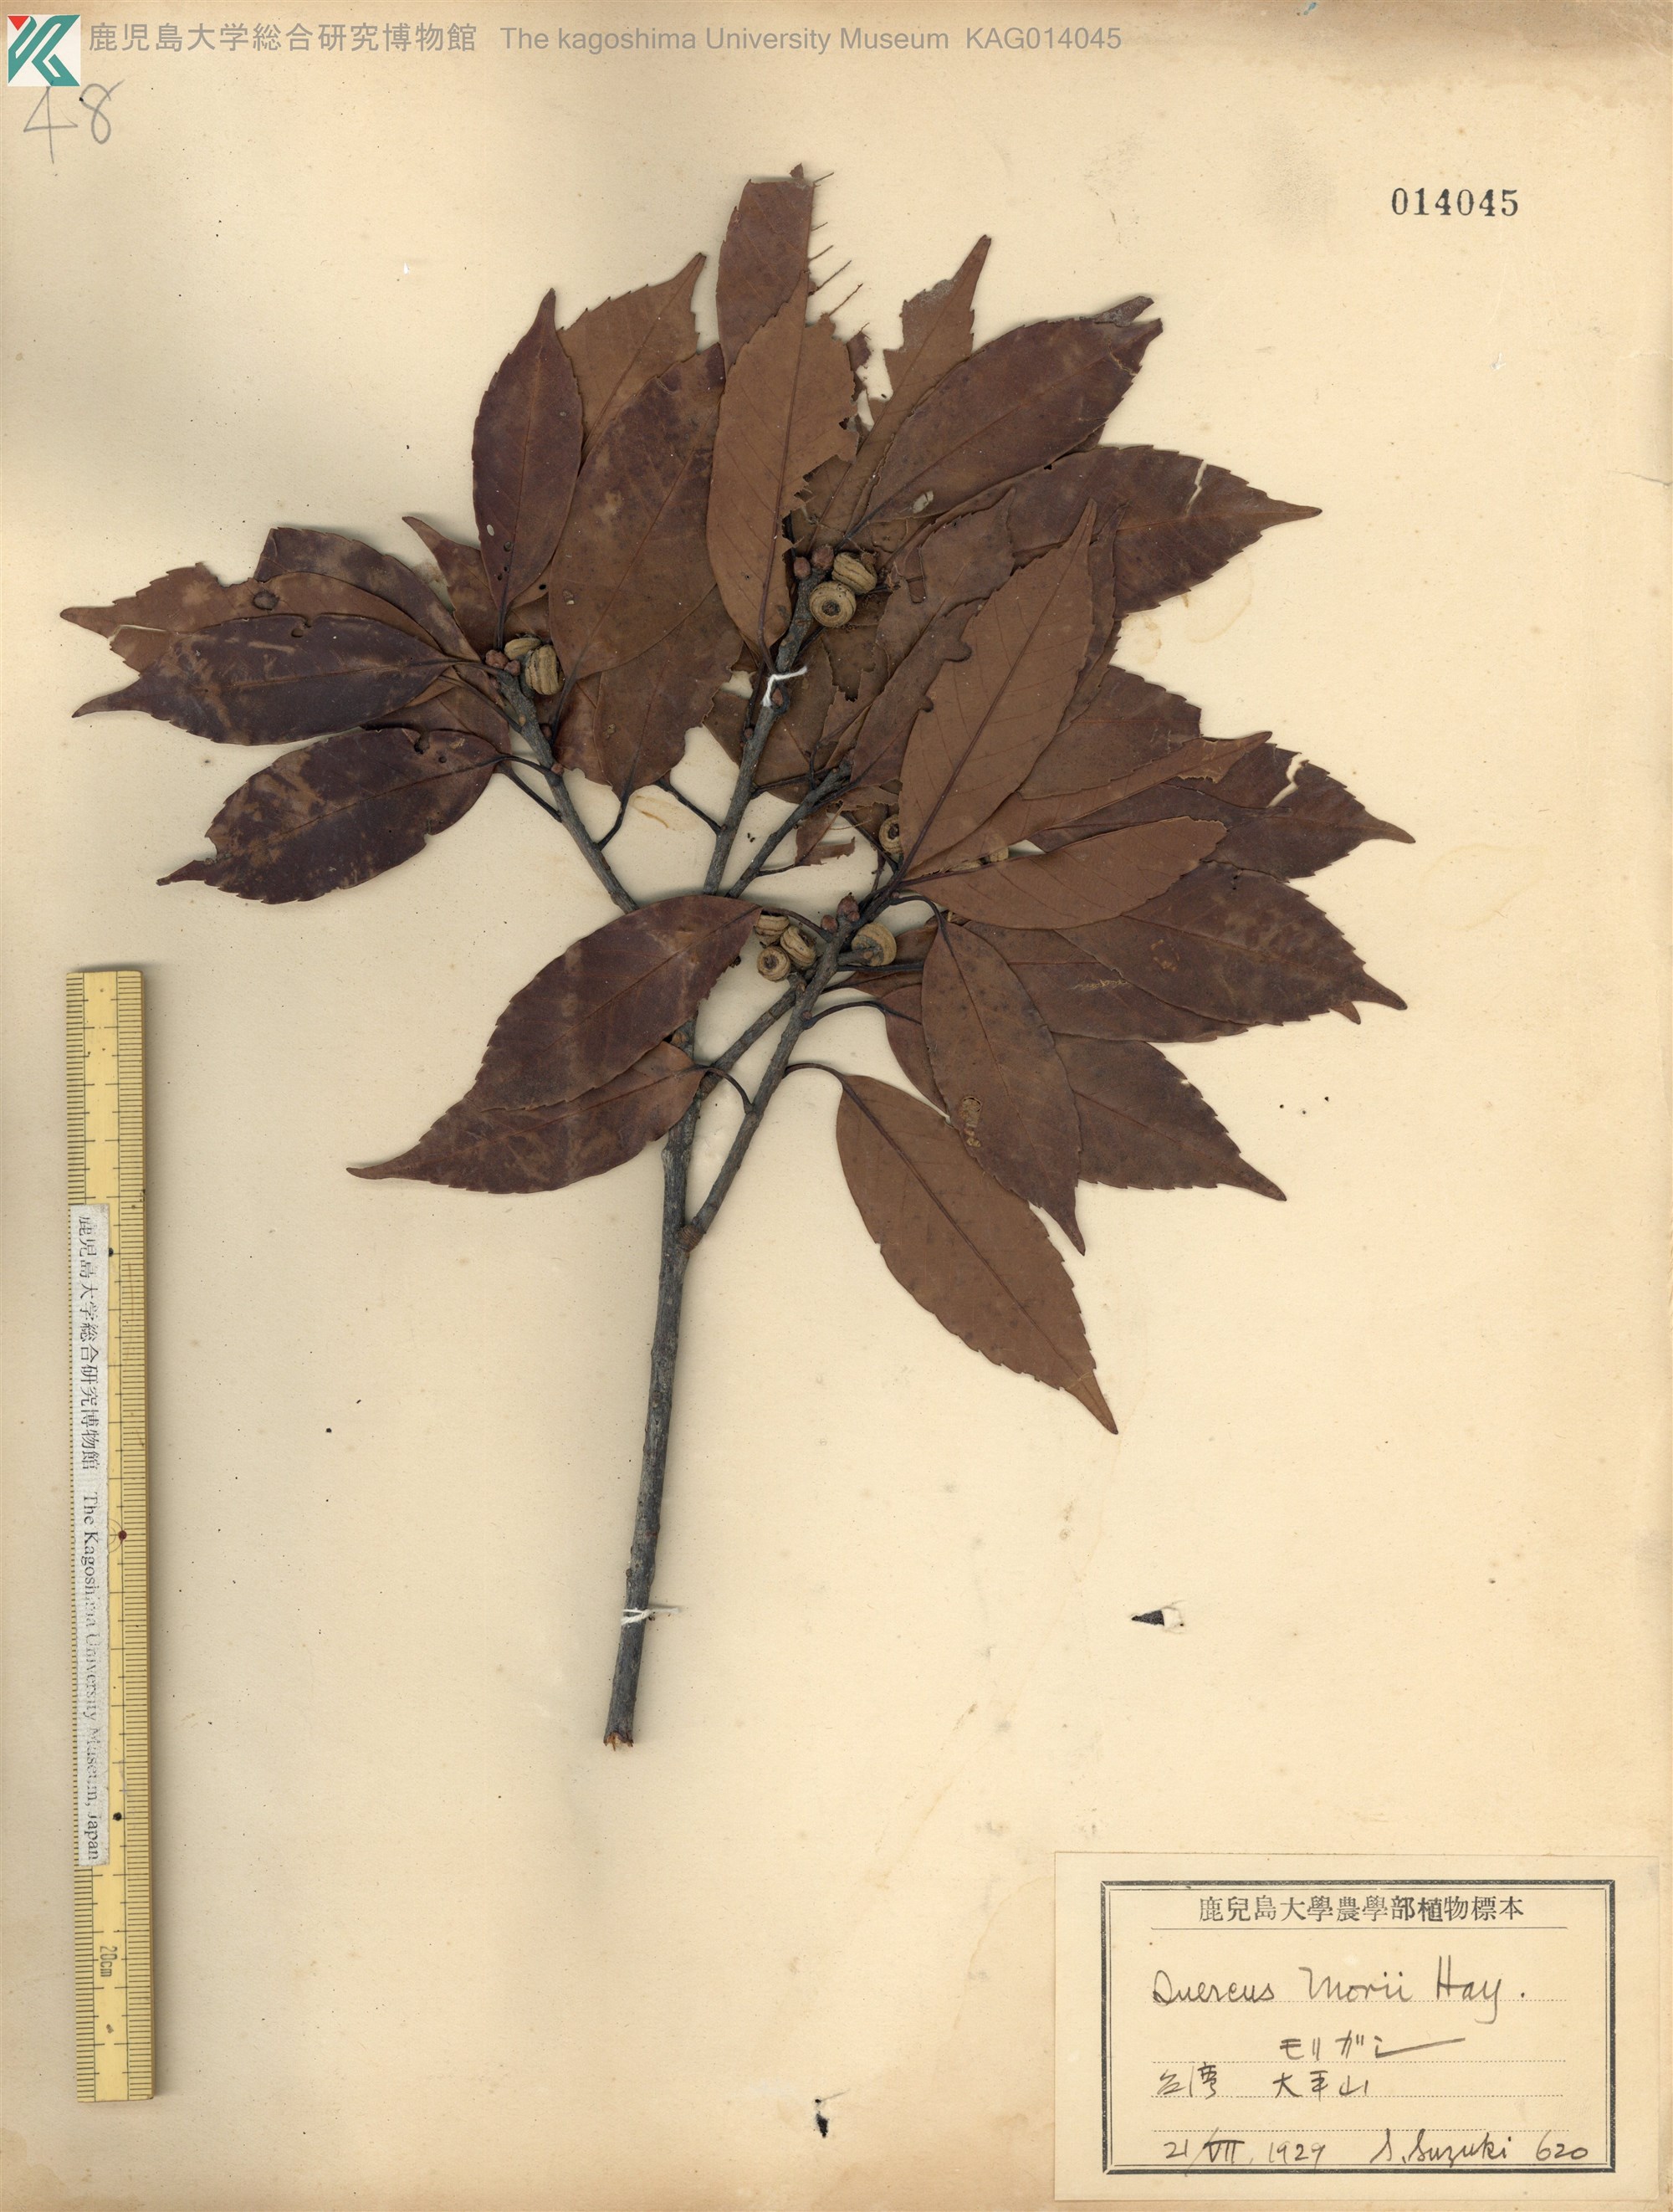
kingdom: Plantae
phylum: Tracheophyta
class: Magnoliopsida
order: Fagales
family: Fagaceae
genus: Quercus
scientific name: Quercus morii
